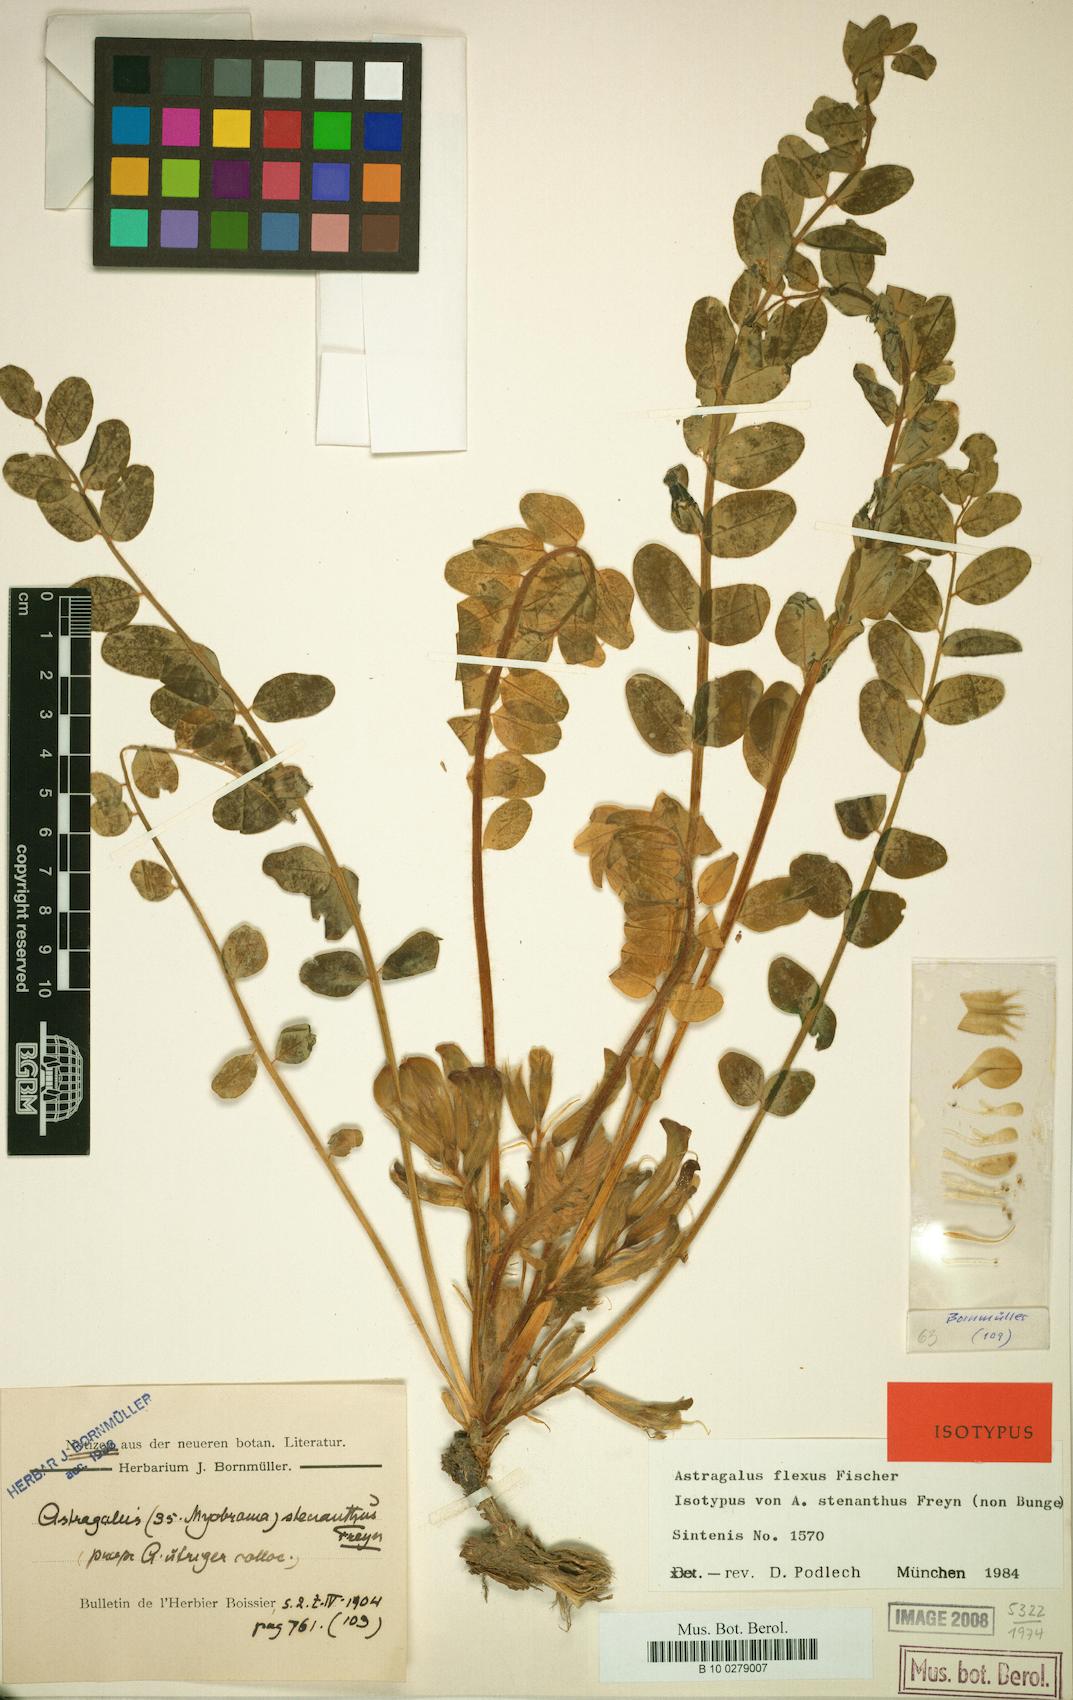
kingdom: Plantae
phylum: Tracheophyta
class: Magnoliopsida
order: Fabales
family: Fabaceae
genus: Astragalus
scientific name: Astragalus flexus
